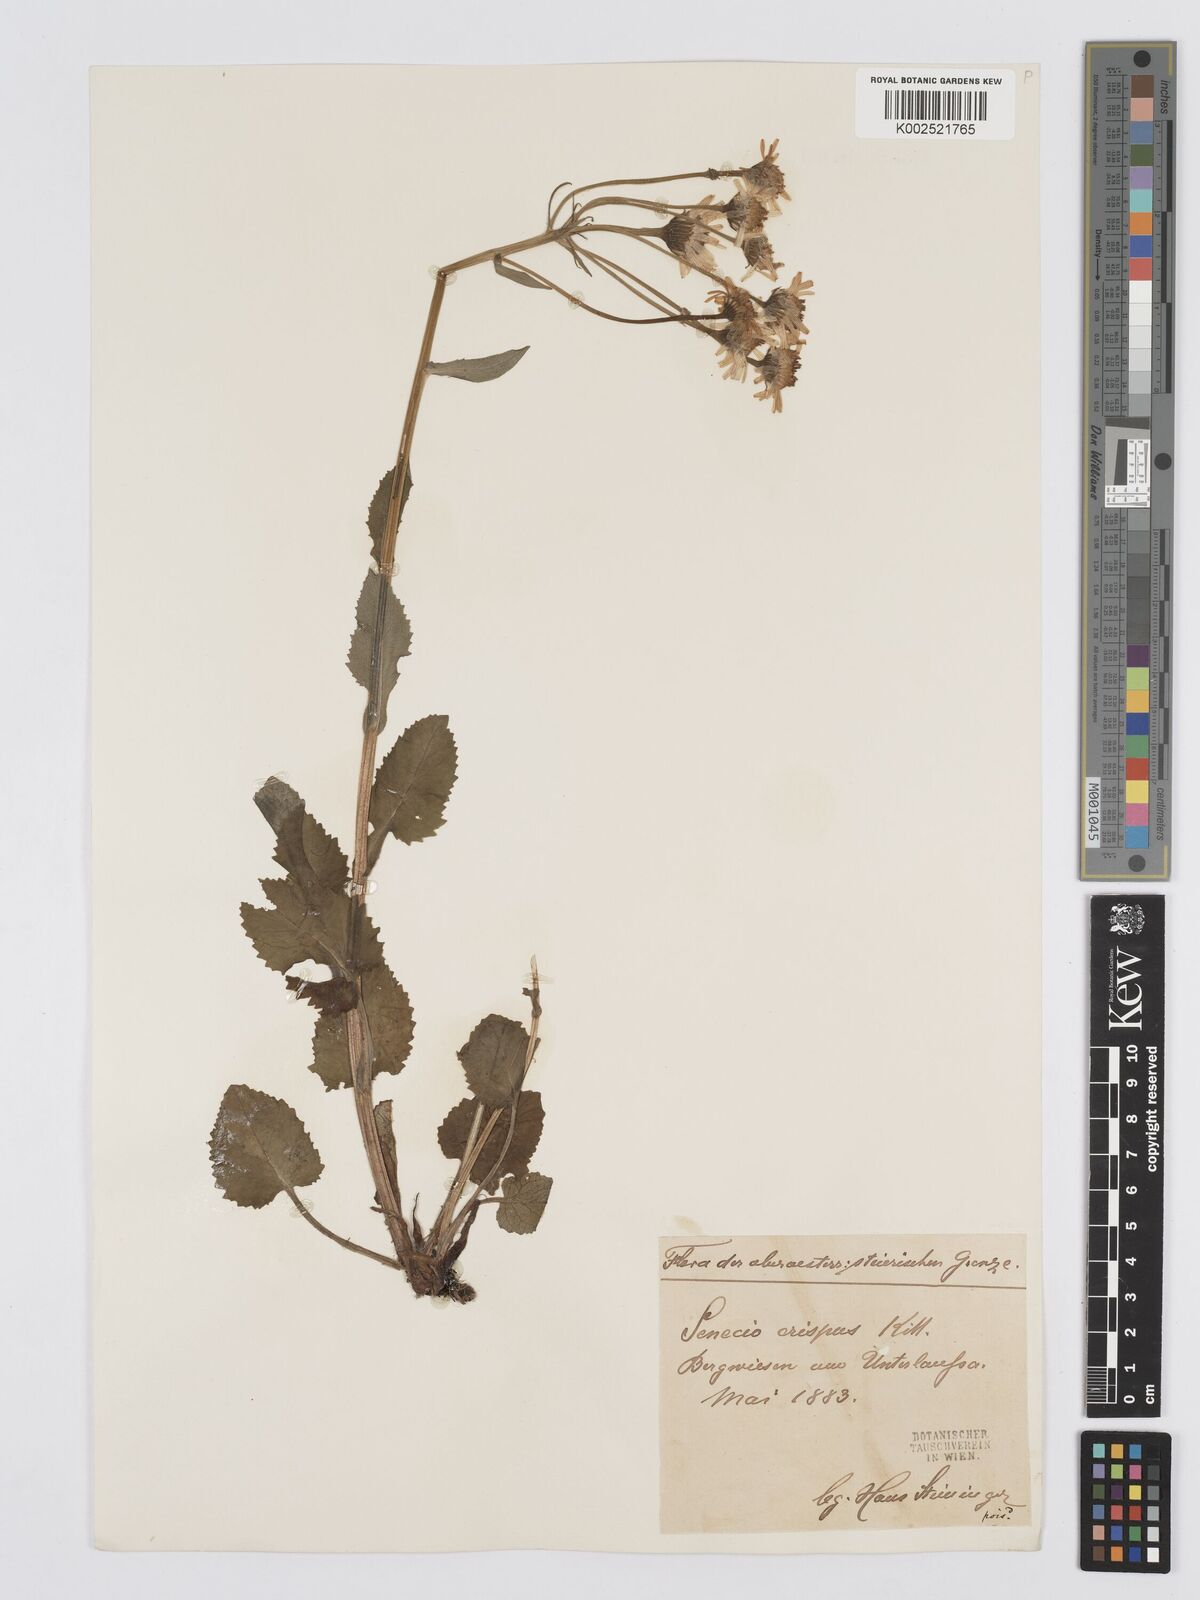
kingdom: Plantae
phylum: Tracheophyta
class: Magnoliopsida
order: Asterales
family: Asteraceae
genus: Tephroseris
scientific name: Tephroseris crispa
